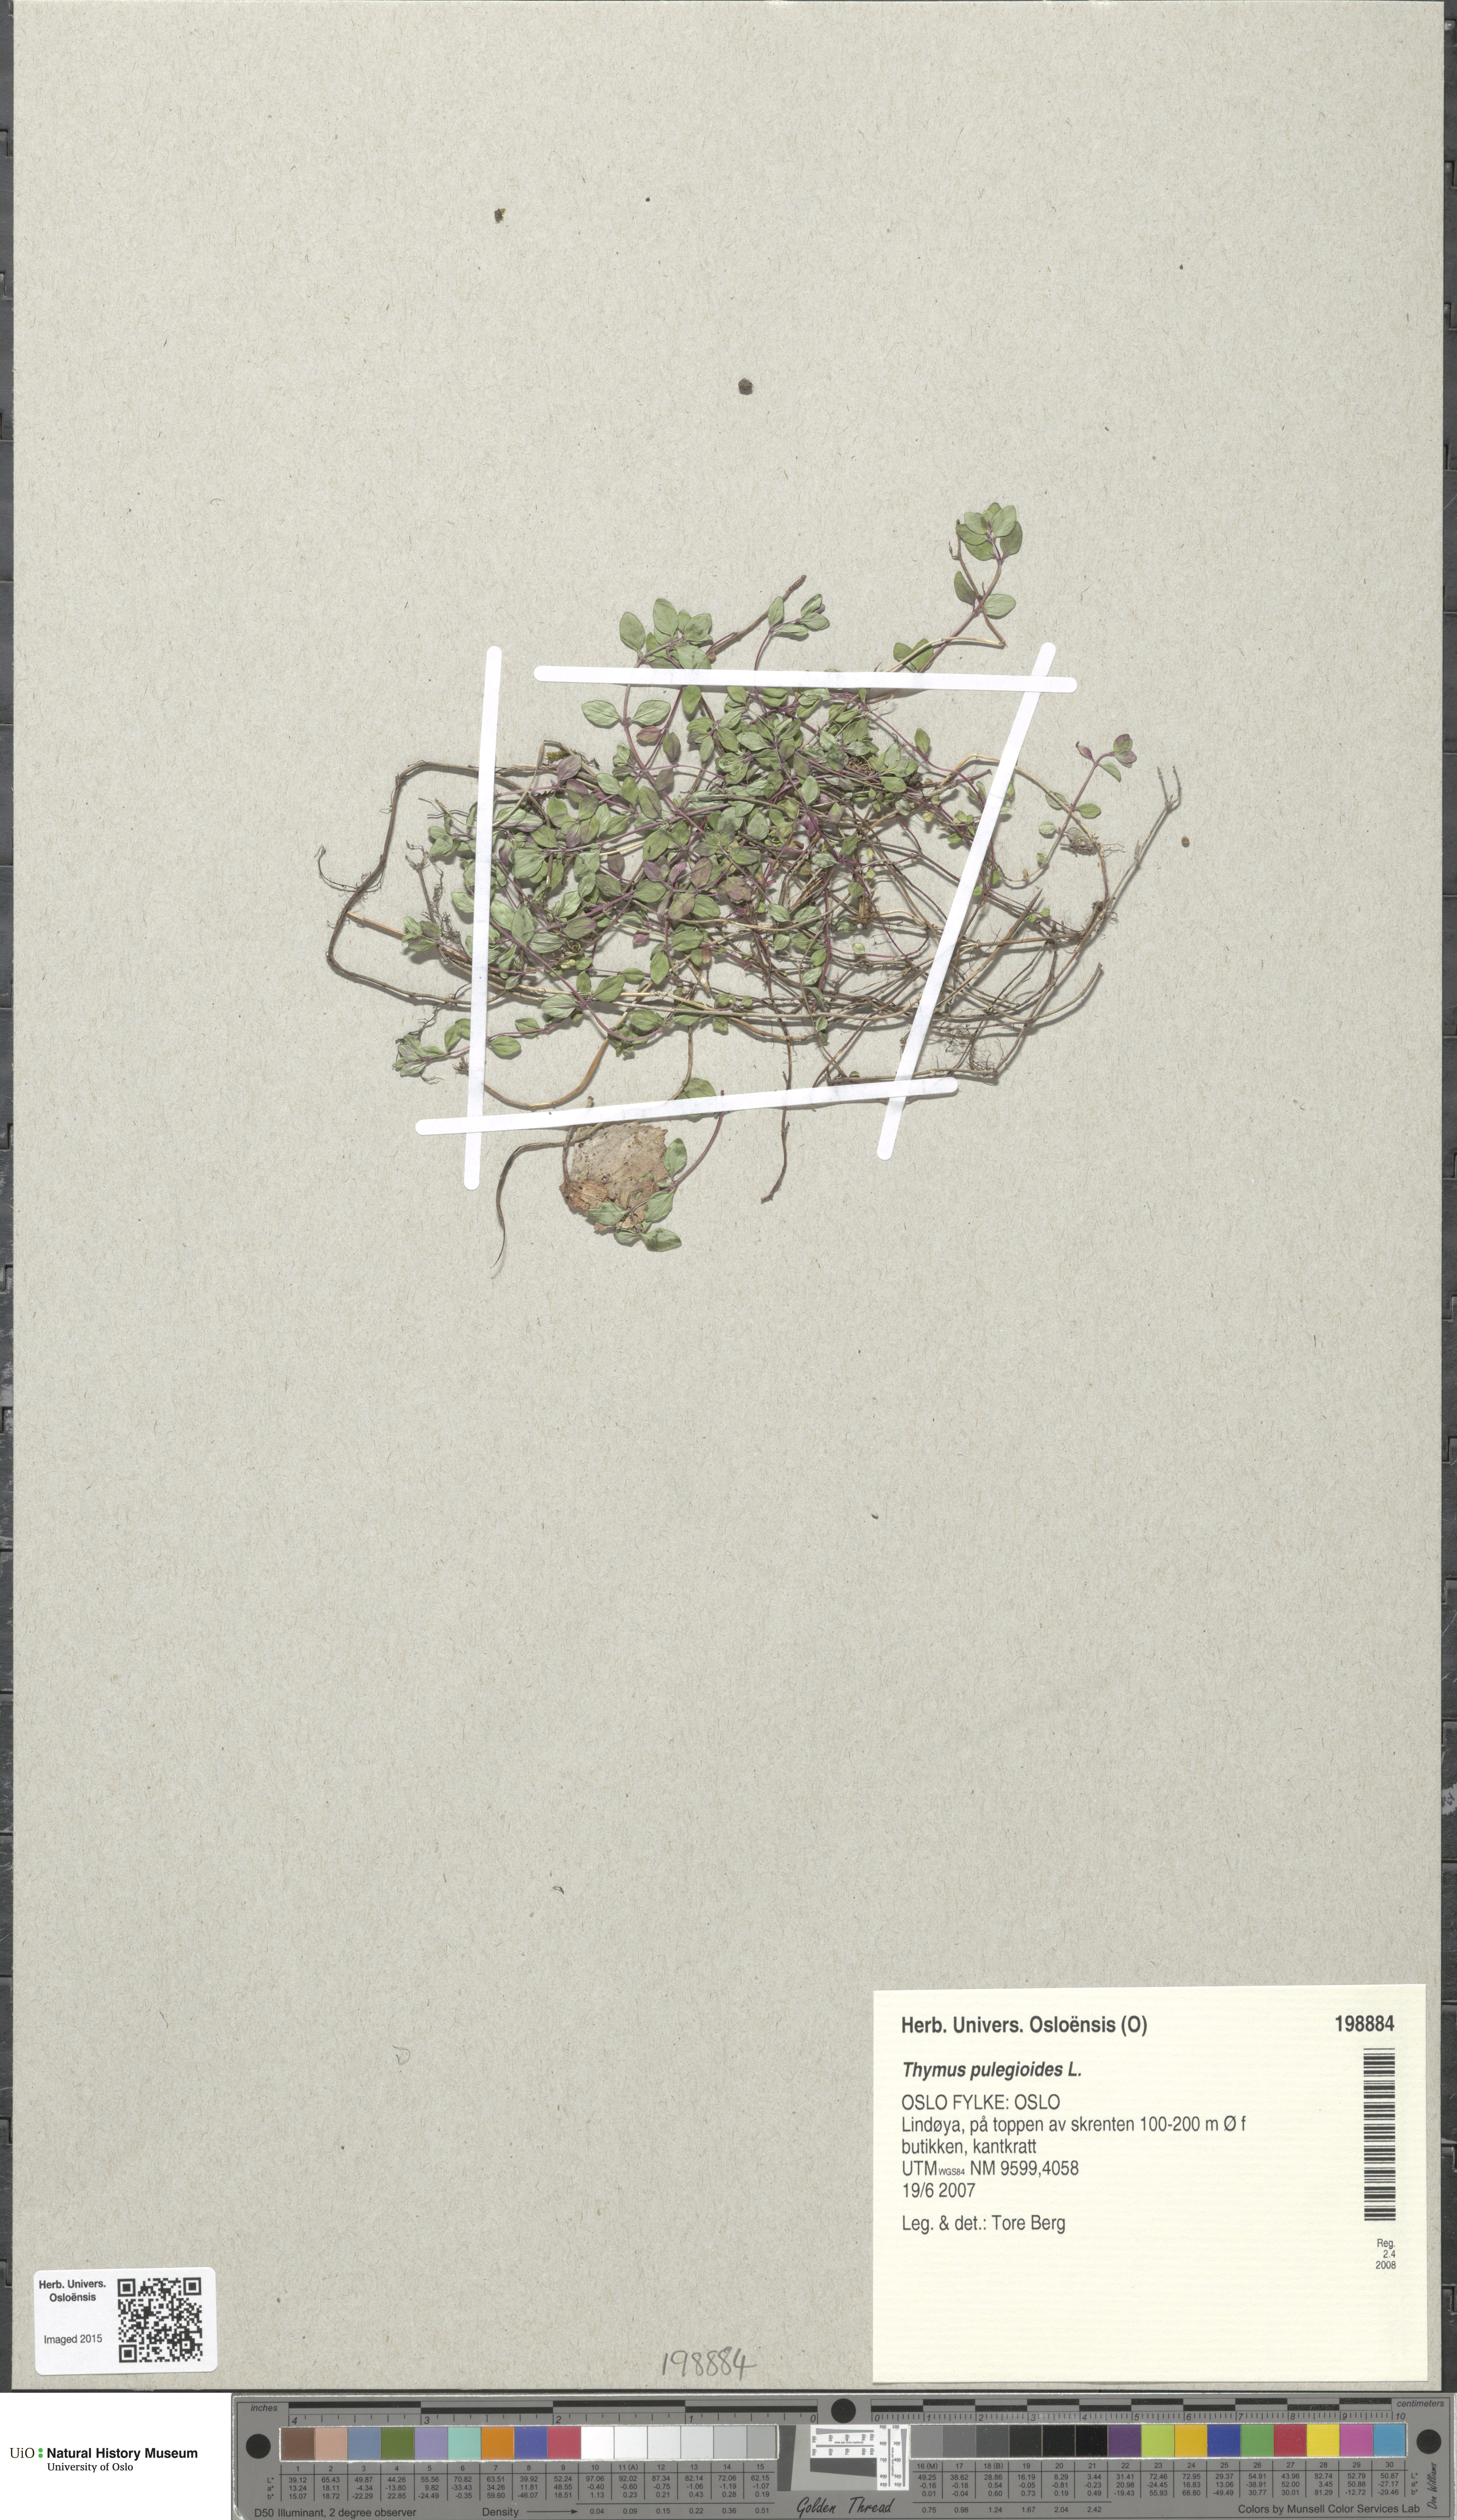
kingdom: Plantae
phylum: Tracheophyta
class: Magnoliopsida
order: Lamiales
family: Lamiaceae
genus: Thymus
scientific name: Thymus pulegioides
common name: Large thyme
